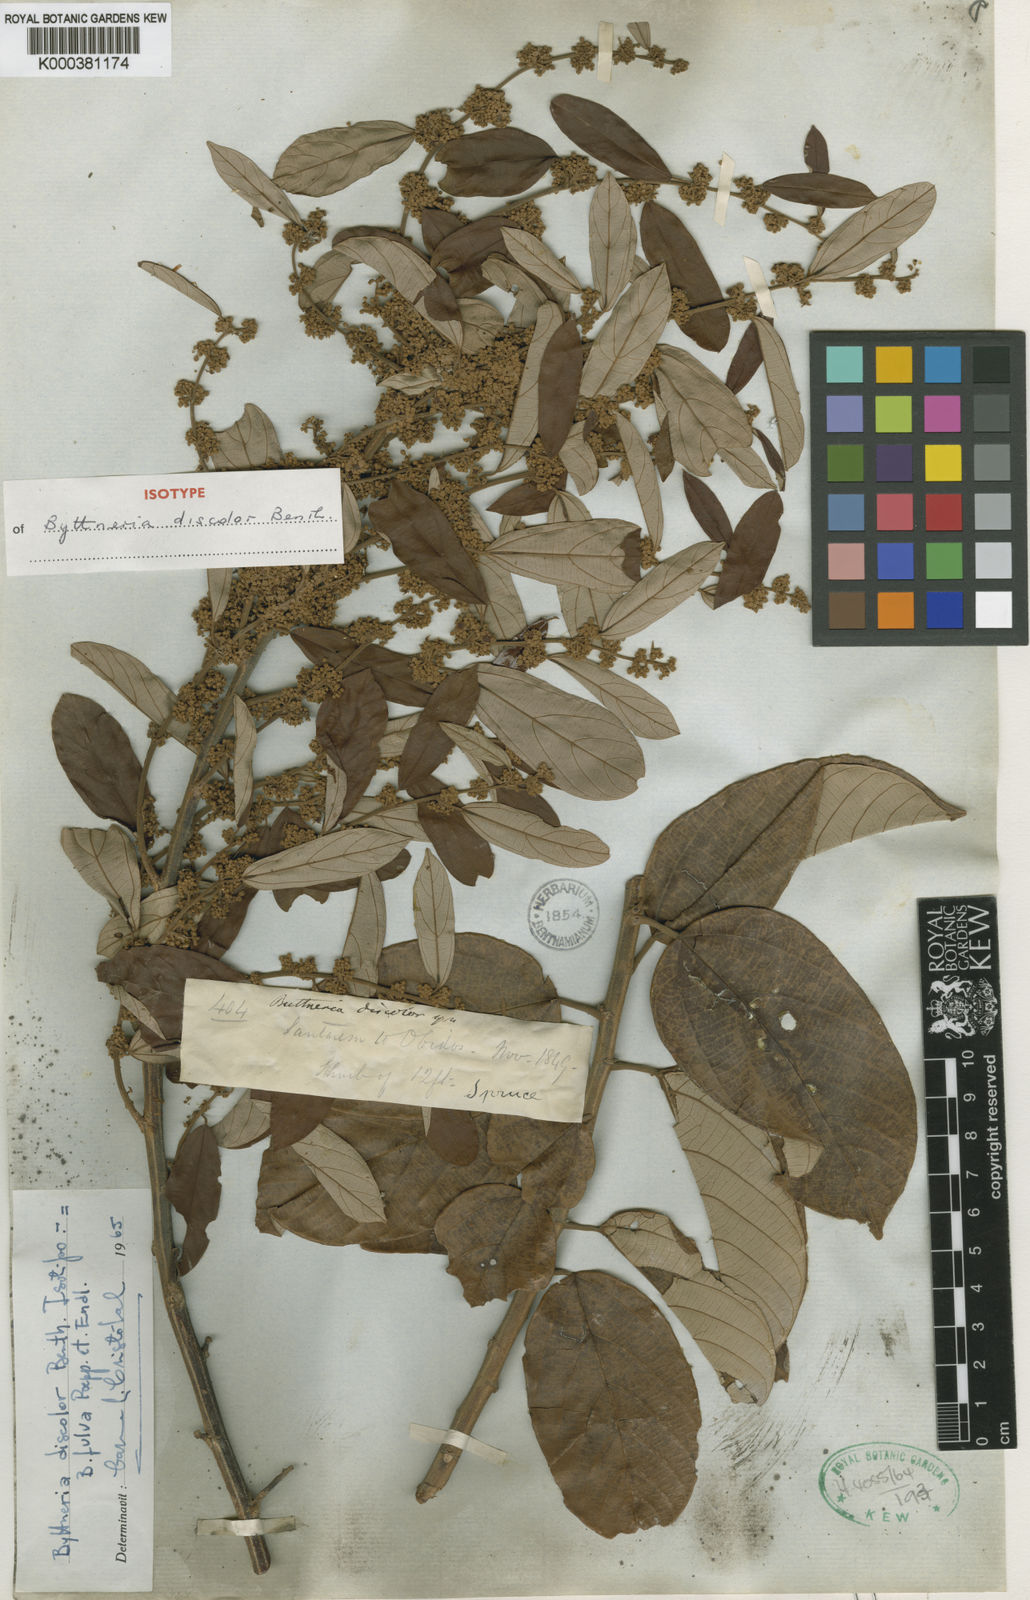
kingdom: Plantae
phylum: Tracheophyta
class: Magnoliopsida
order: Malvales
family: Malvaceae
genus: Byttneria
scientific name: Byttneria fulva
